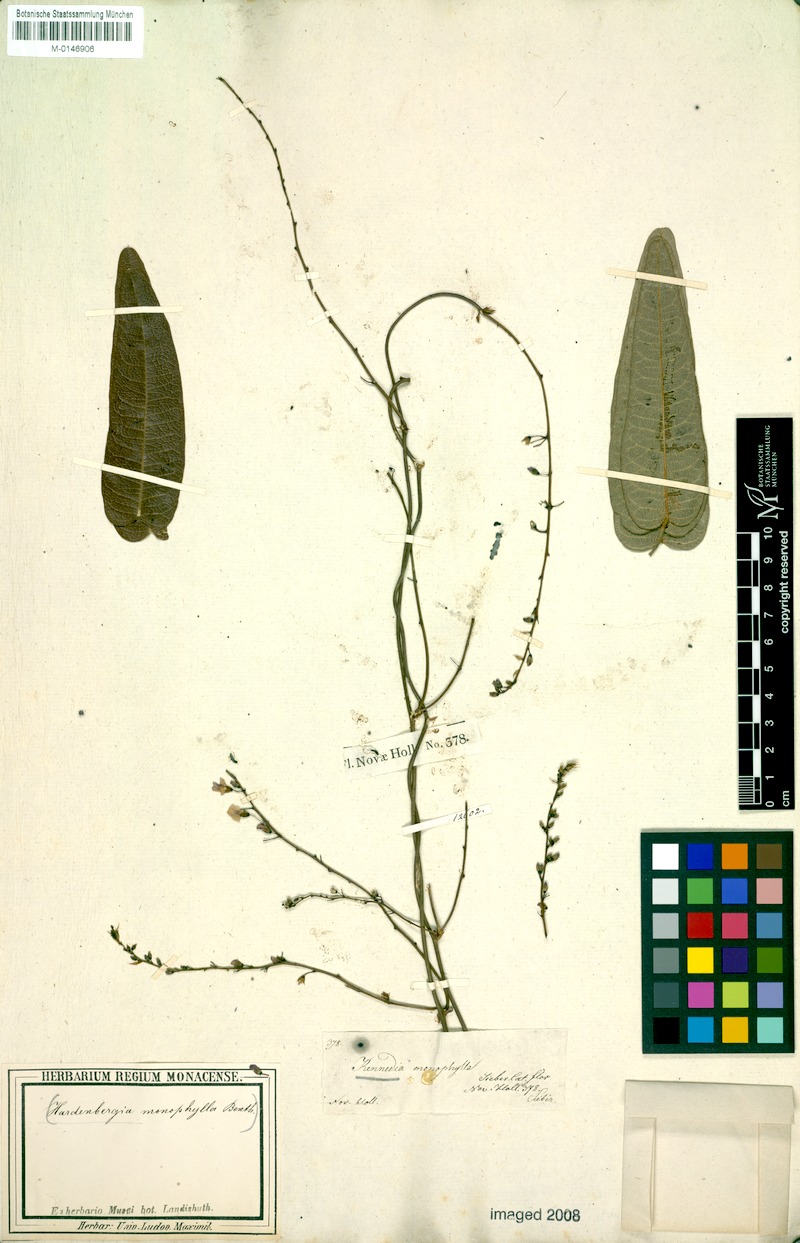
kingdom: Plantae
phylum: Tracheophyta
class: Magnoliopsida
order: Fabales
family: Fabaceae
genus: Hardenbergia
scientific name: Hardenbergia violacea
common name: Coral-pea
